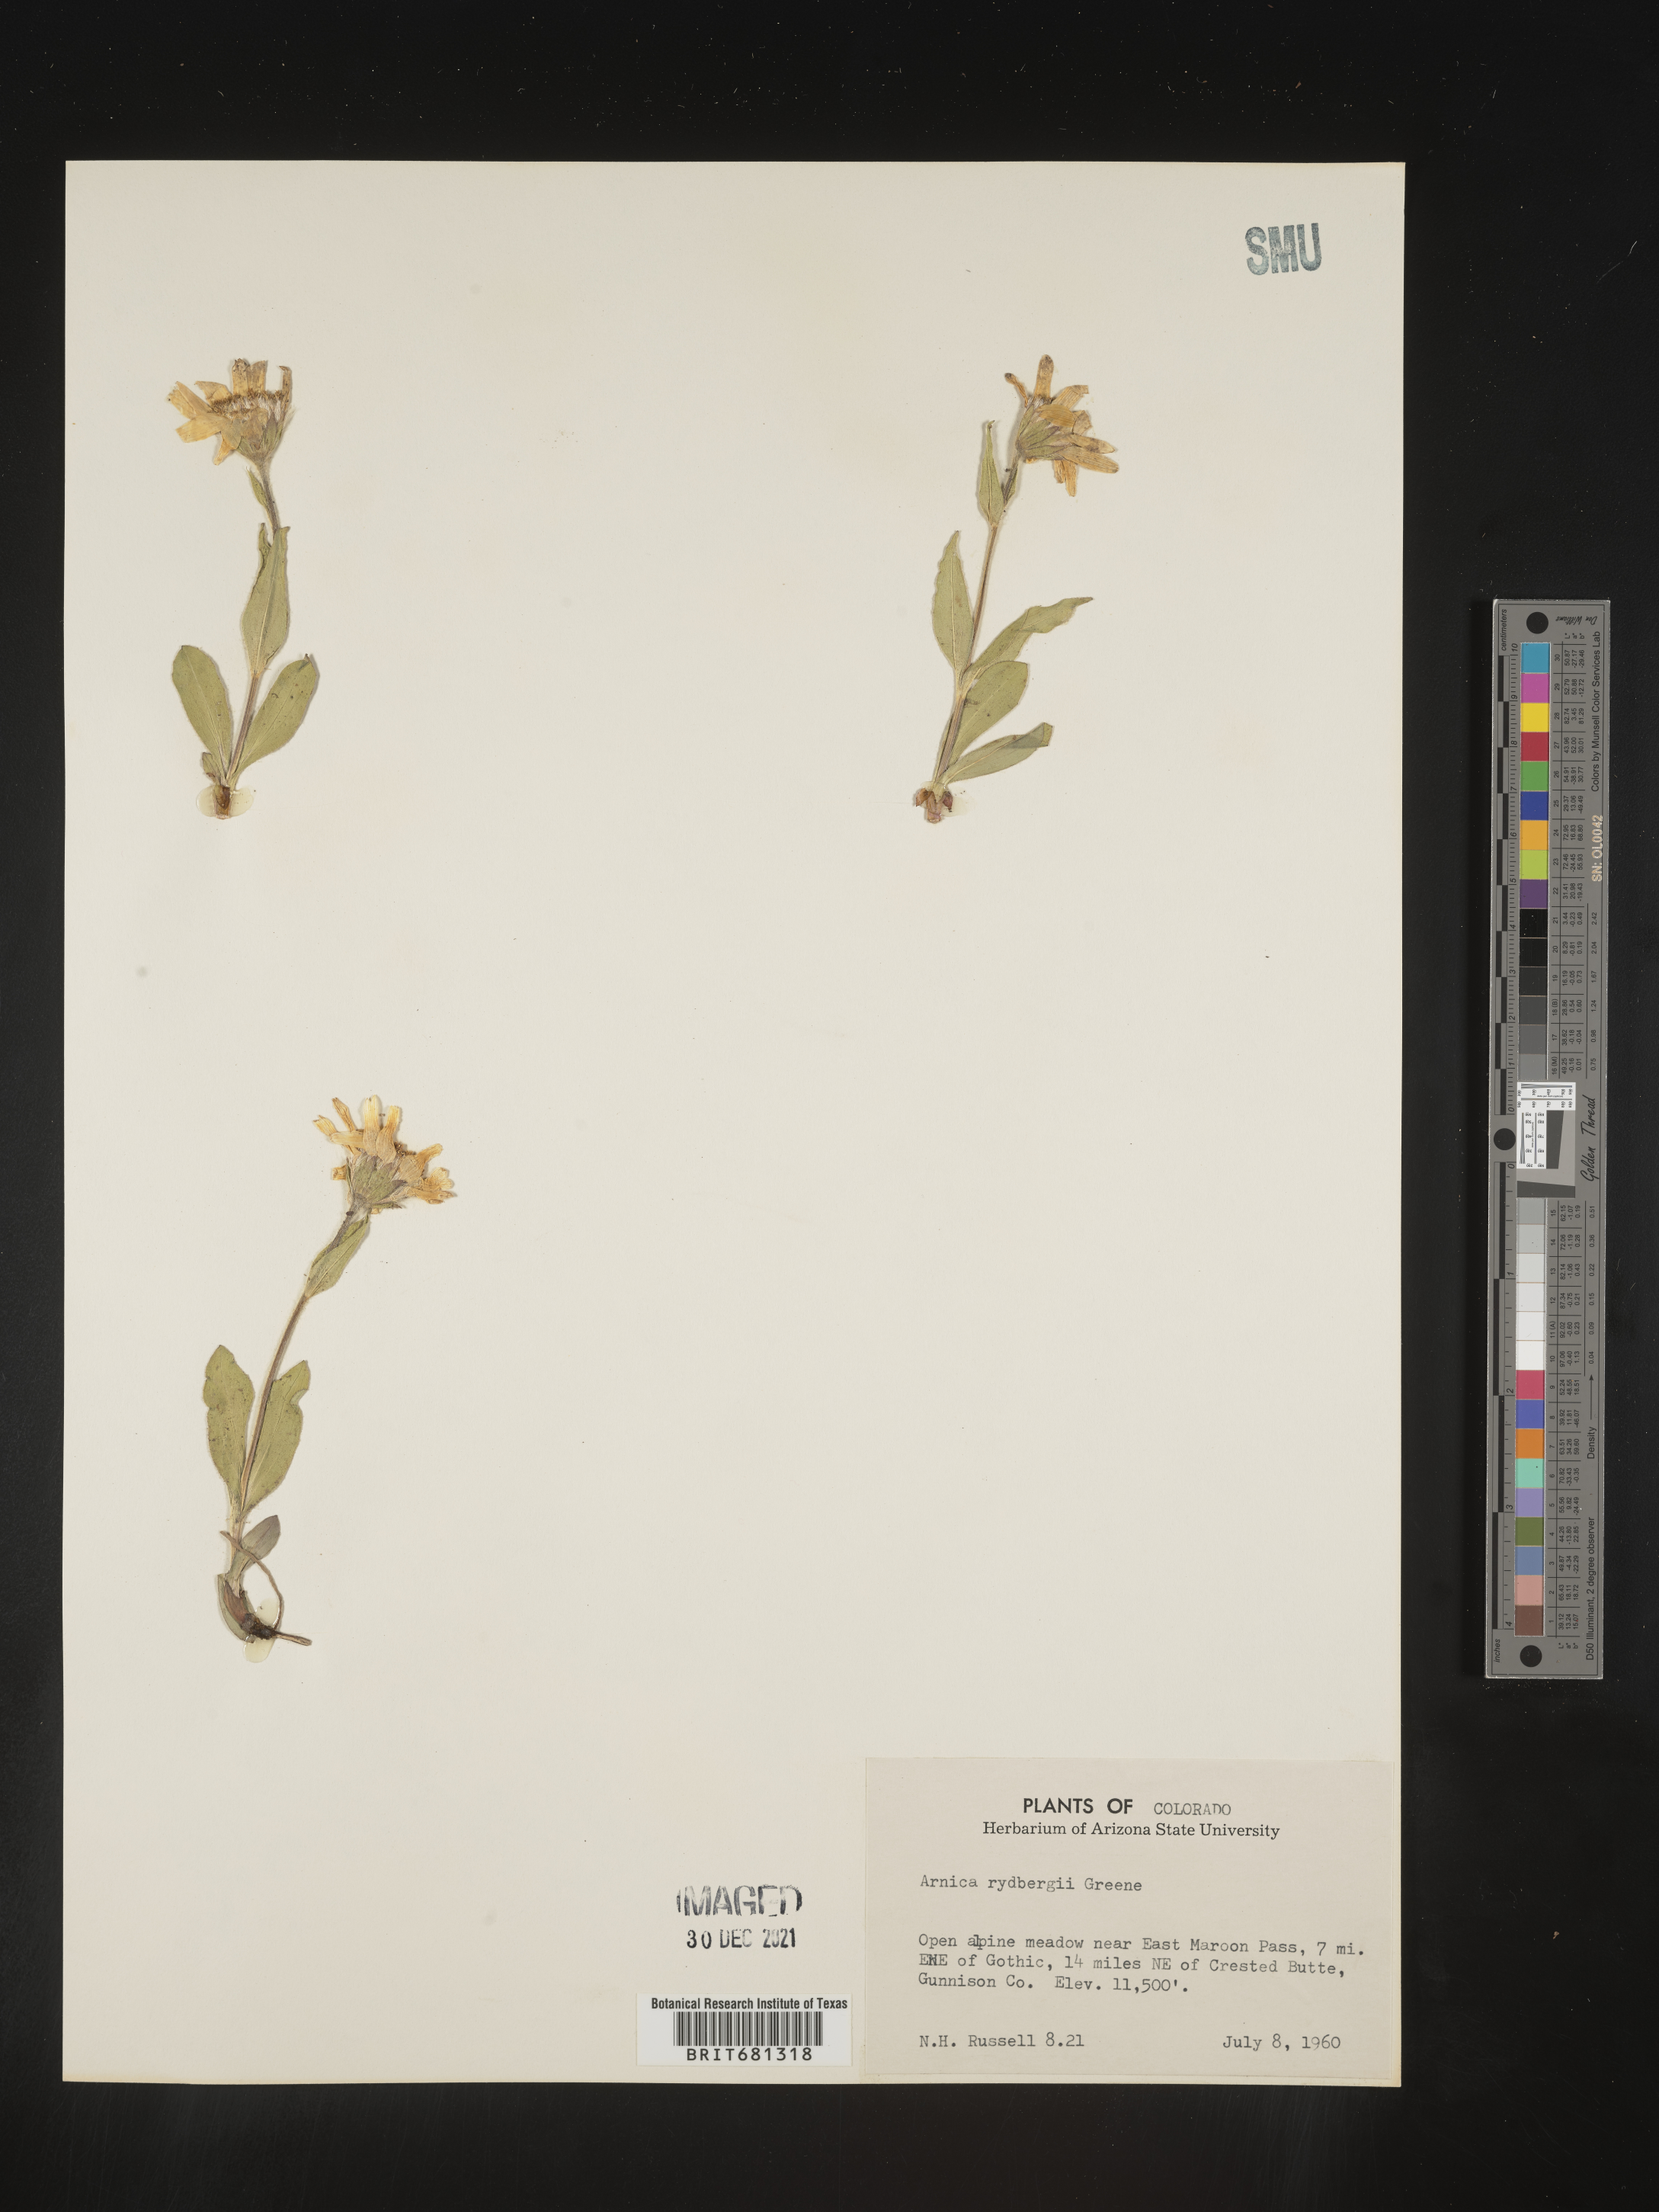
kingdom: Plantae
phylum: Tracheophyta
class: Magnoliopsida
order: Asterales
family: Asteraceae
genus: Arnica
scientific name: Arnica rydbergii
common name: Rydberg's arnica
